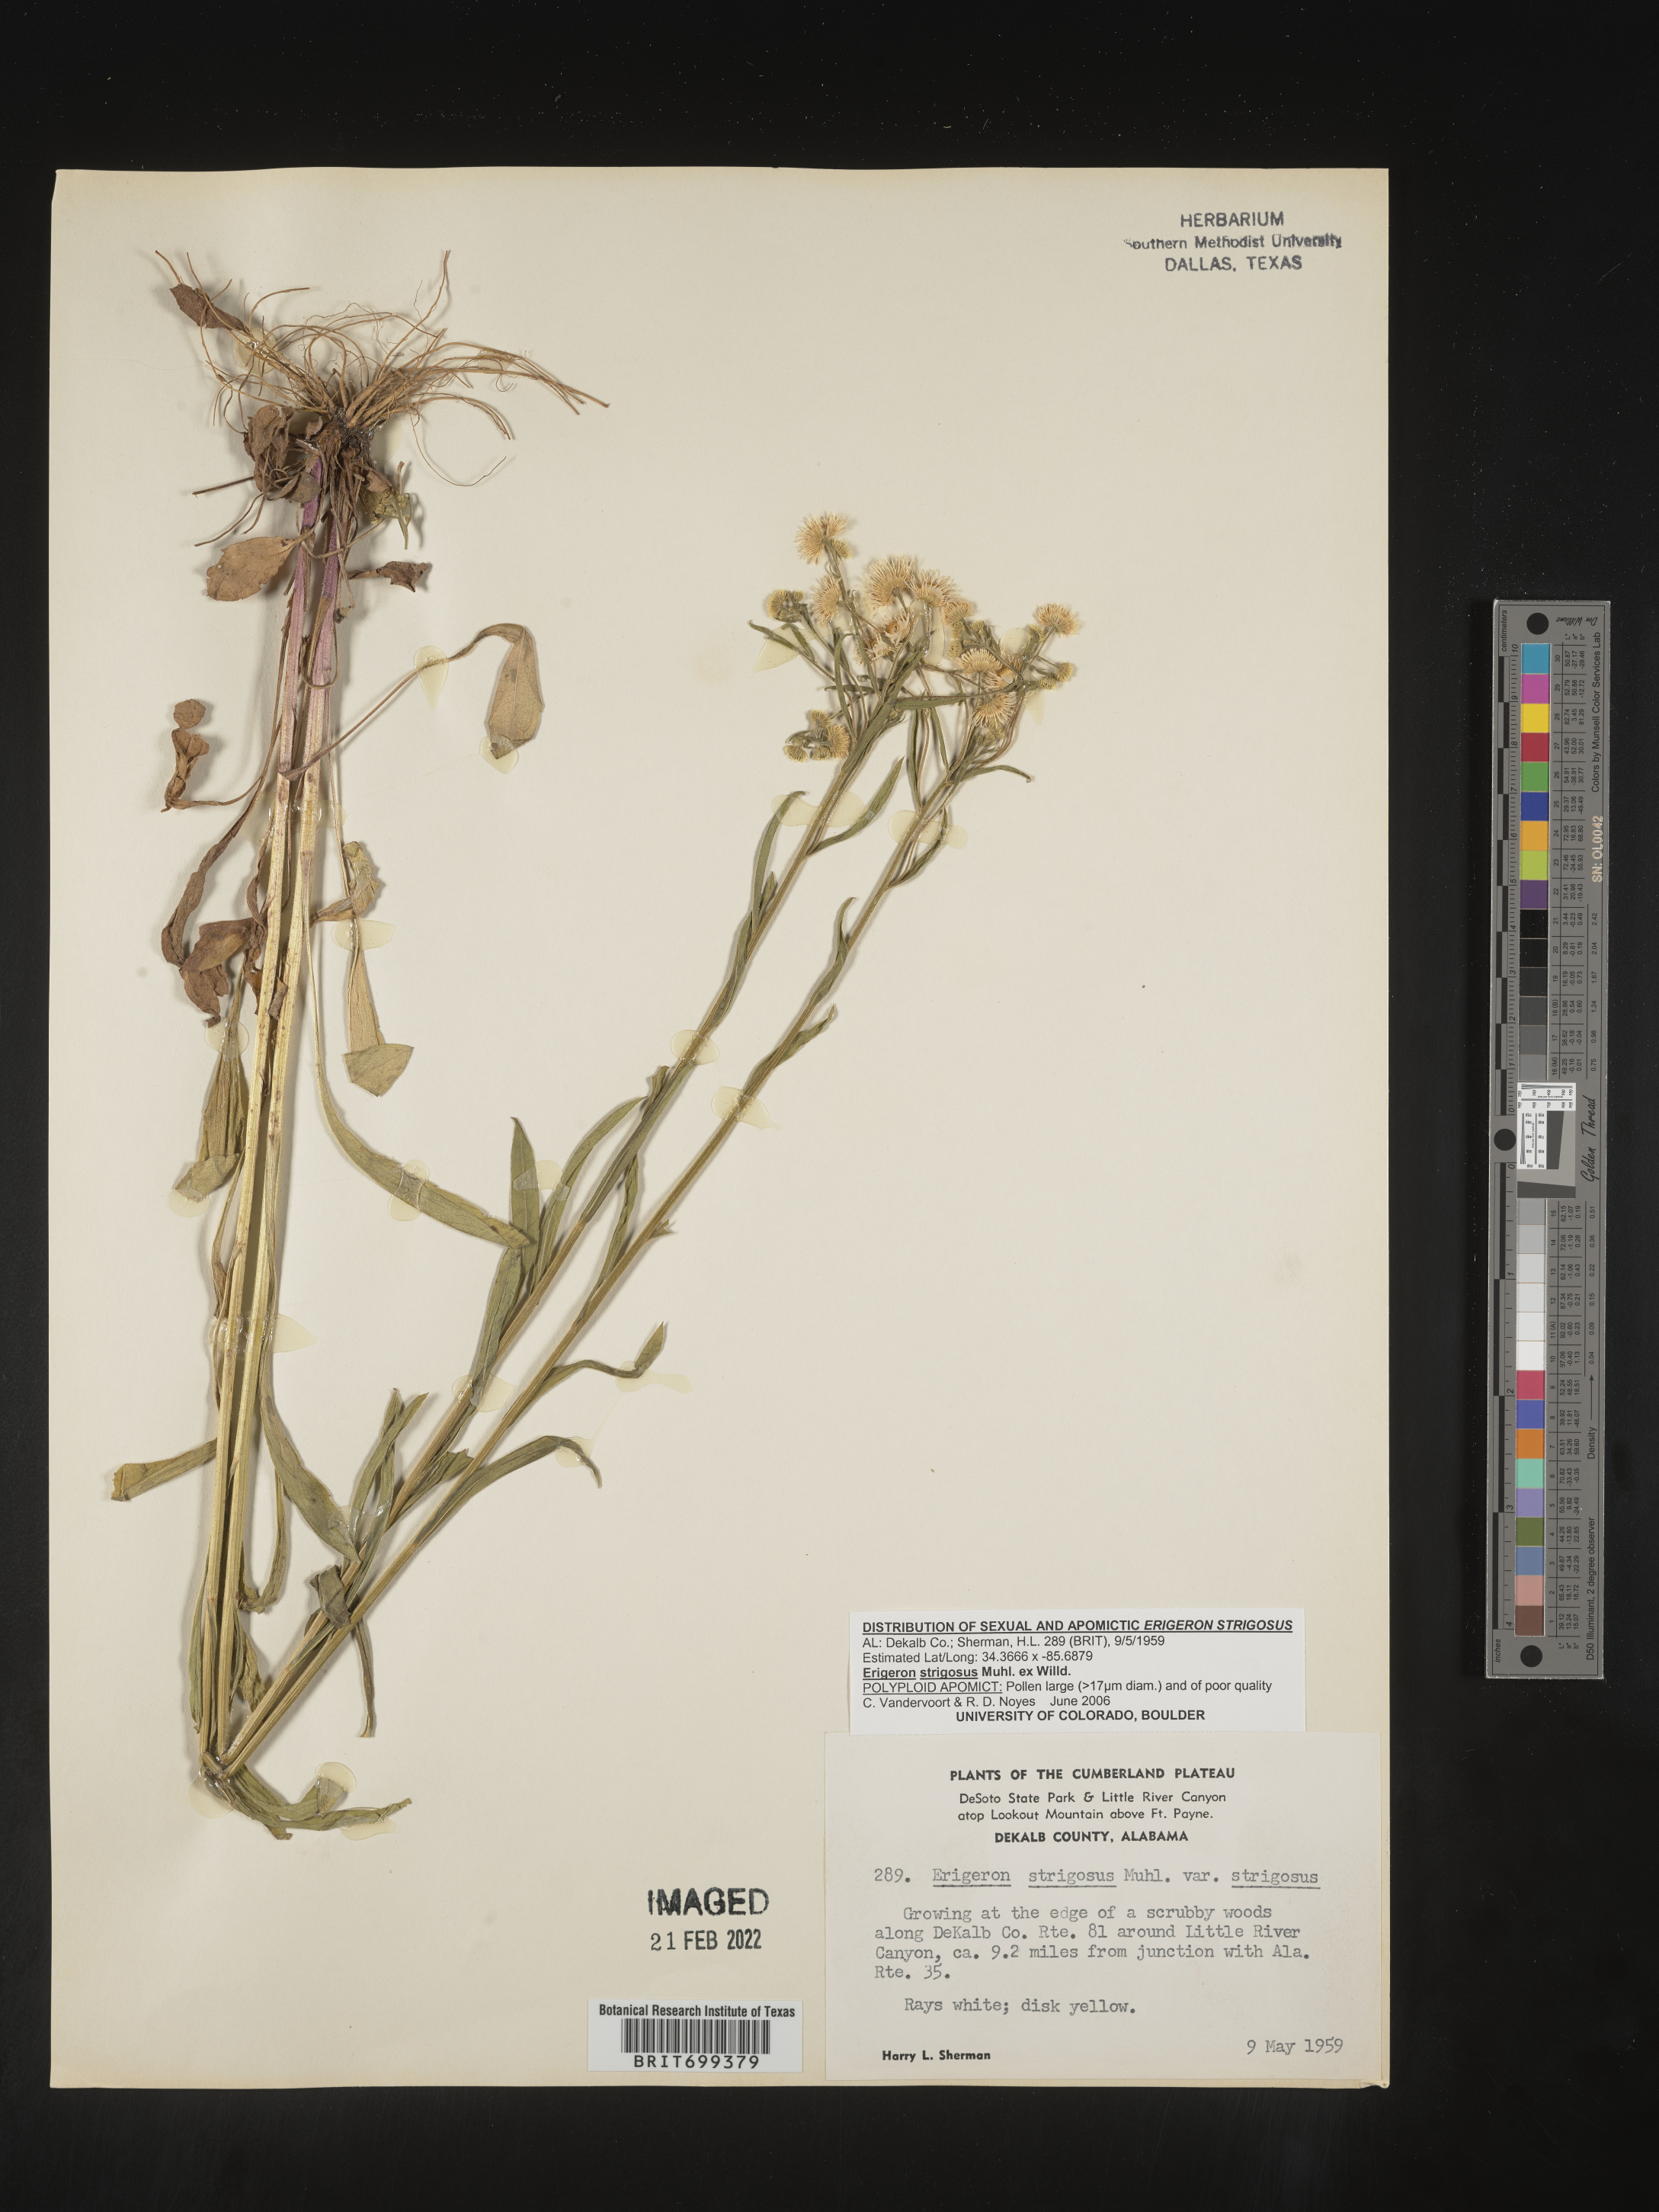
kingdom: Plantae
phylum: Tracheophyta
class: Magnoliopsida
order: Asterales
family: Asteraceae
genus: Erigeron
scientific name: Erigeron strigosus
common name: Common eastern fleabane
